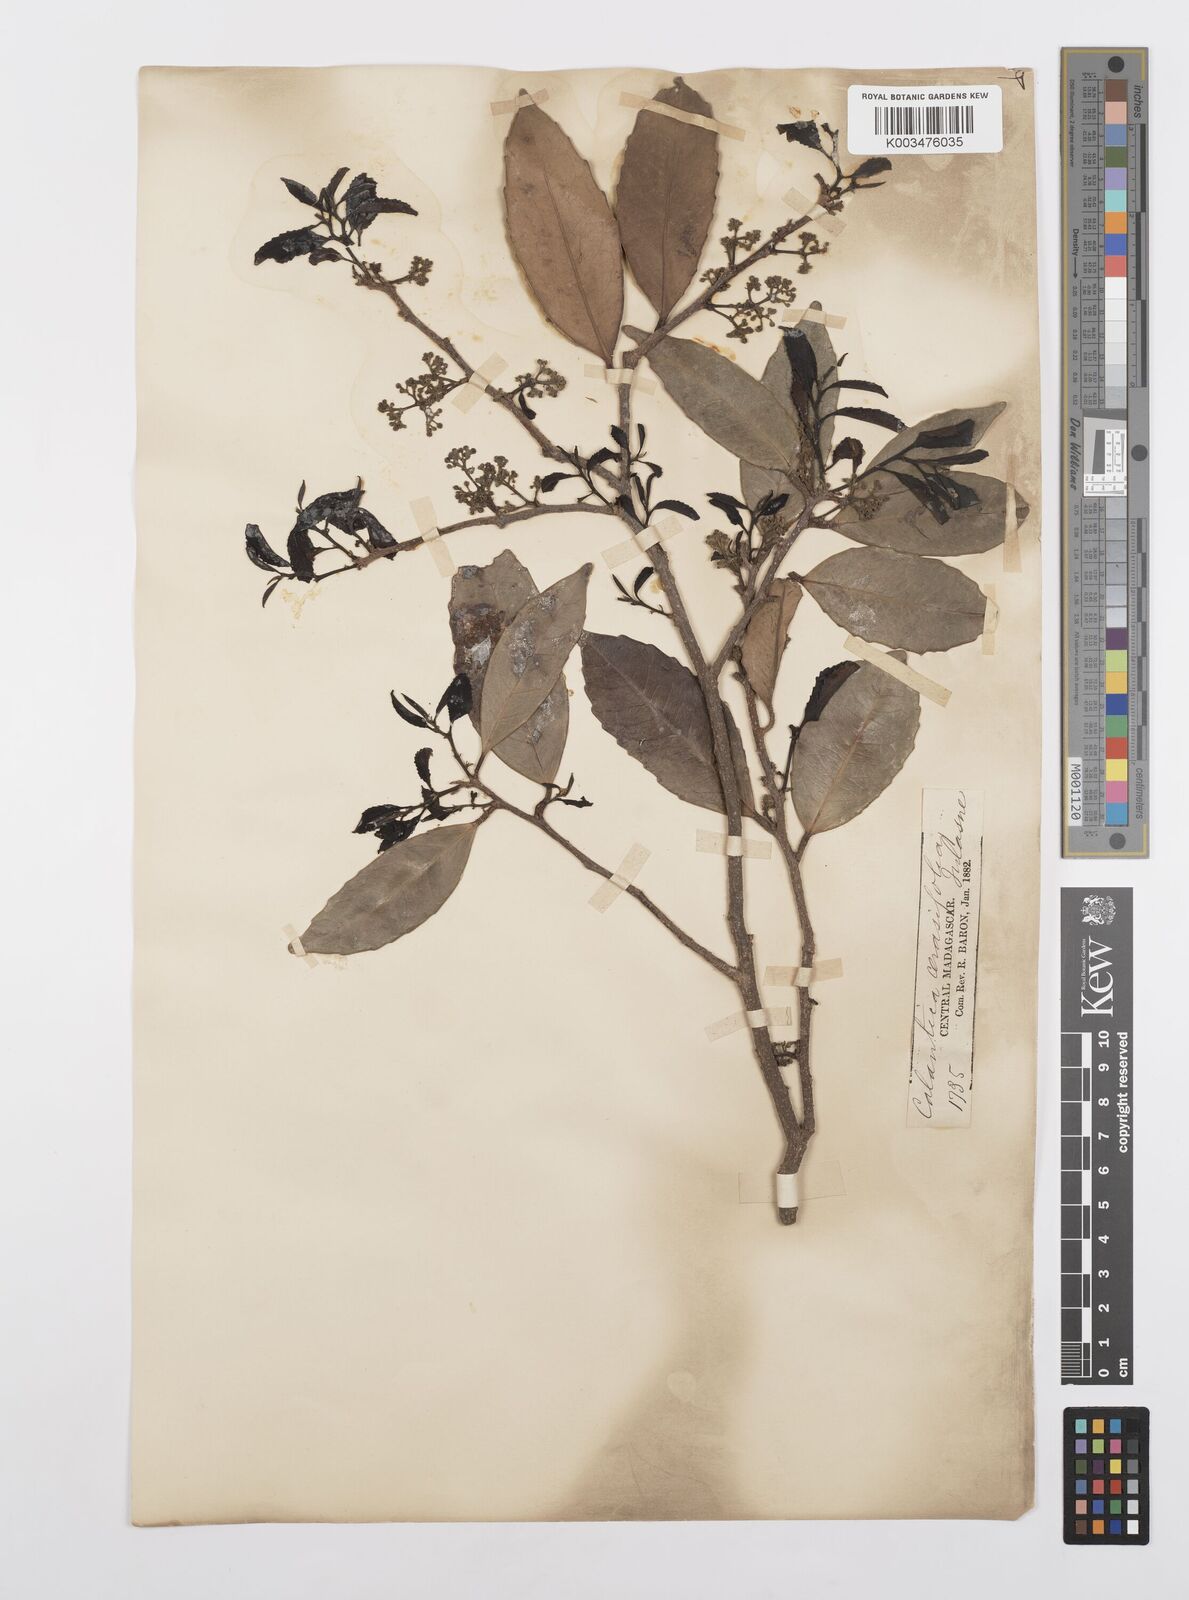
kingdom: Plantae
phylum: Tracheophyta
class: Magnoliopsida
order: Malpighiales
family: Salicaceae
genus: Calantica
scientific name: Calantica cerasifolia
